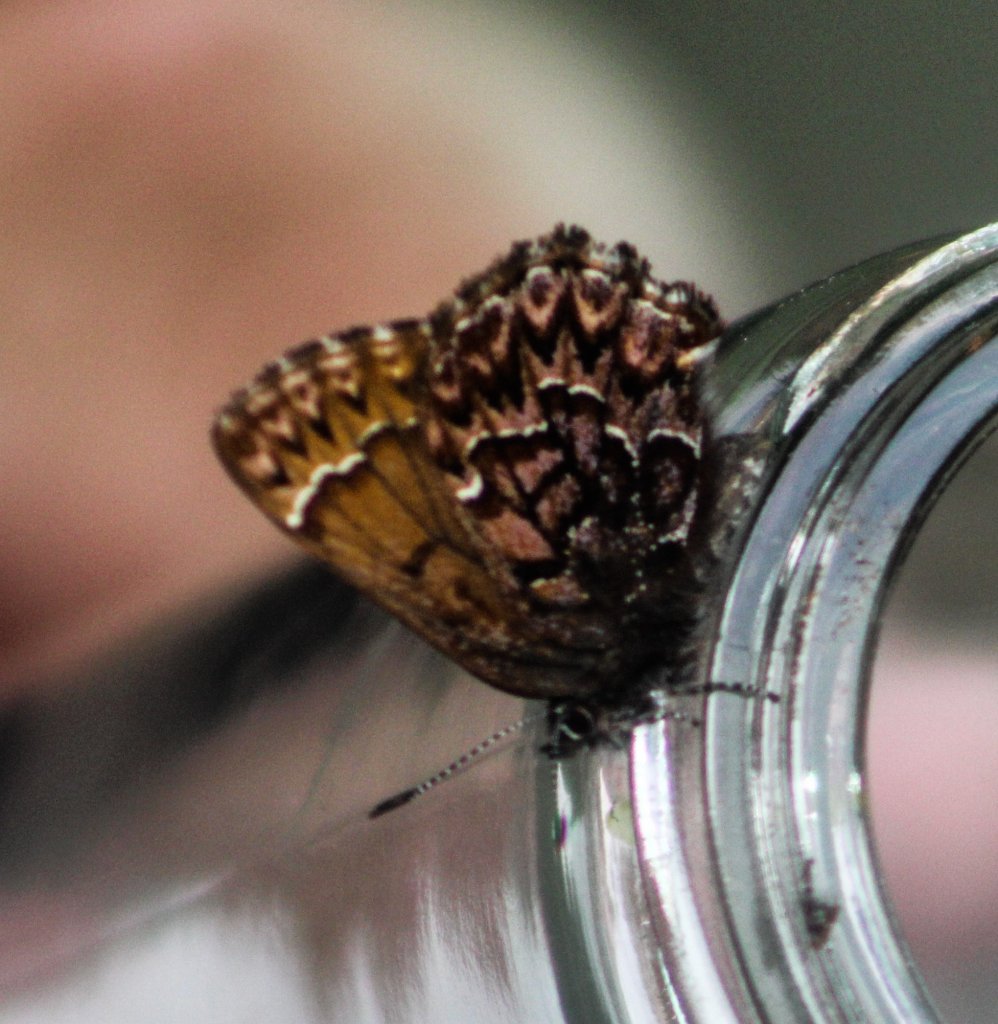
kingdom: Animalia
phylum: Arthropoda
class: Insecta
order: Lepidoptera
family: Lycaenidae
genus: Incisalia
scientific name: Incisalia eryphon
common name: Western Pine Elfin
